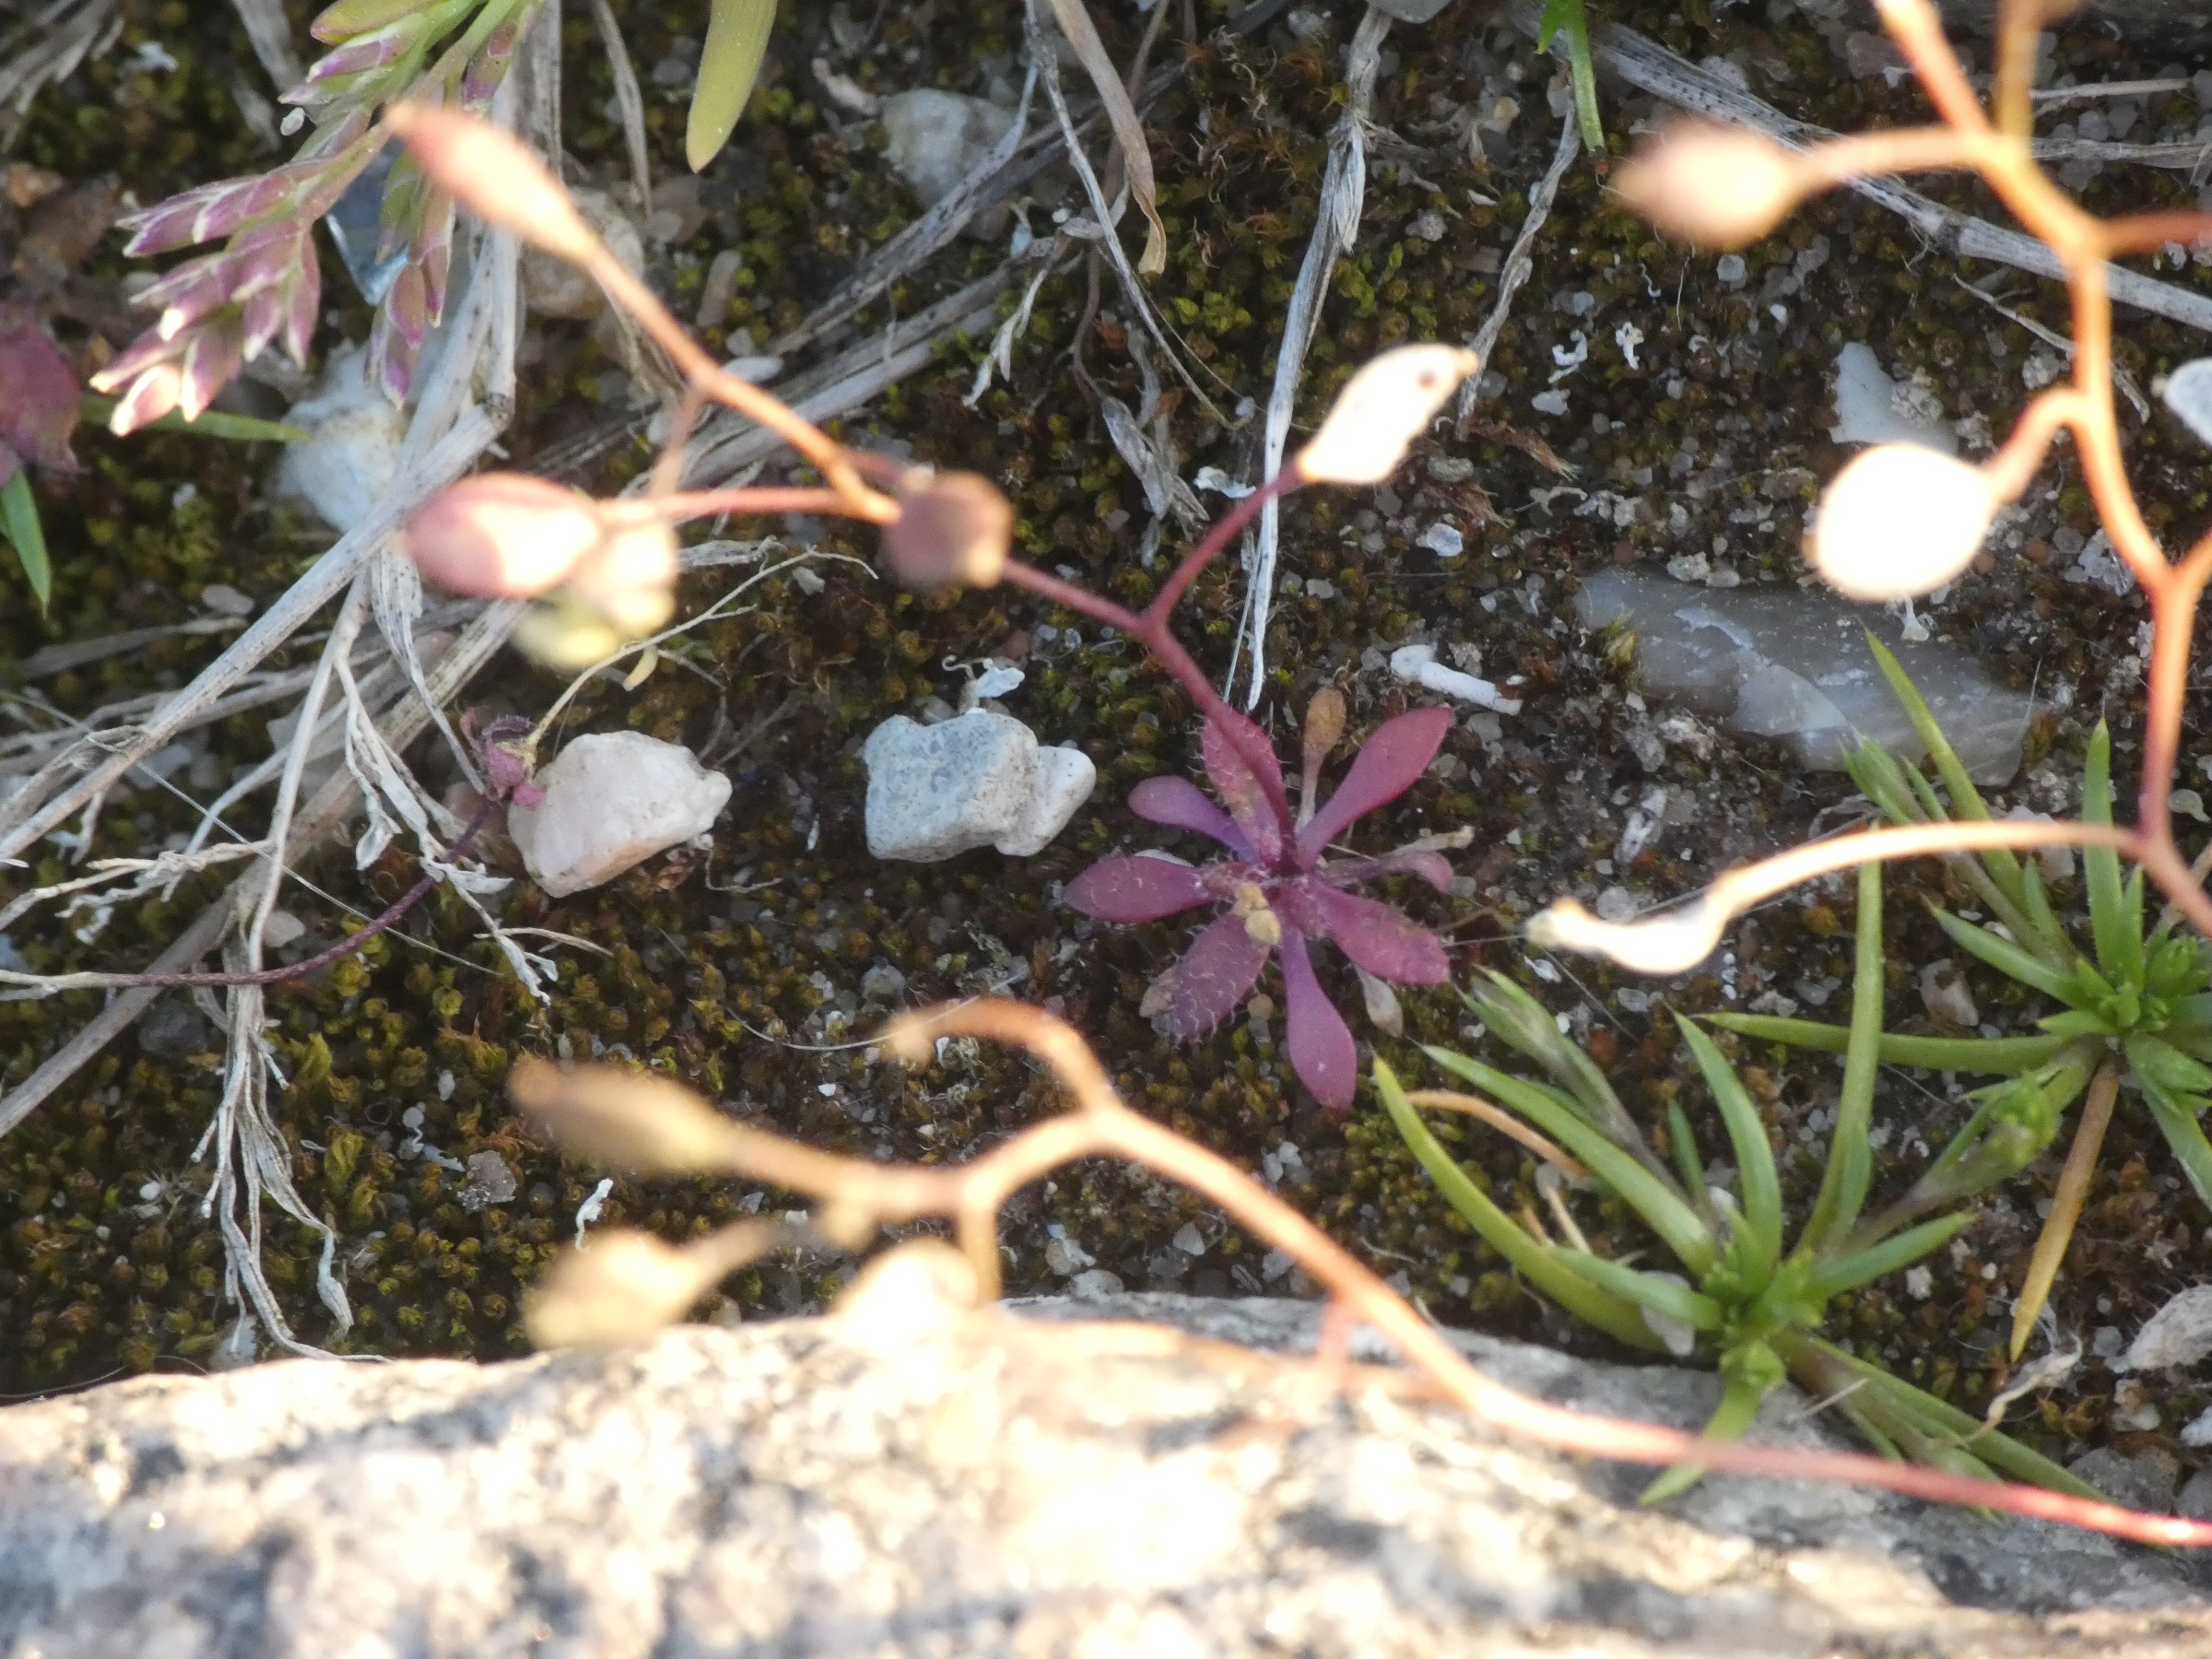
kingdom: Plantae
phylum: Tracheophyta
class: Magnoliopsida
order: Brassicales
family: Brassicaceae
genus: Draba
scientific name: Draba verna
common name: Vår-gæslingeblomst
